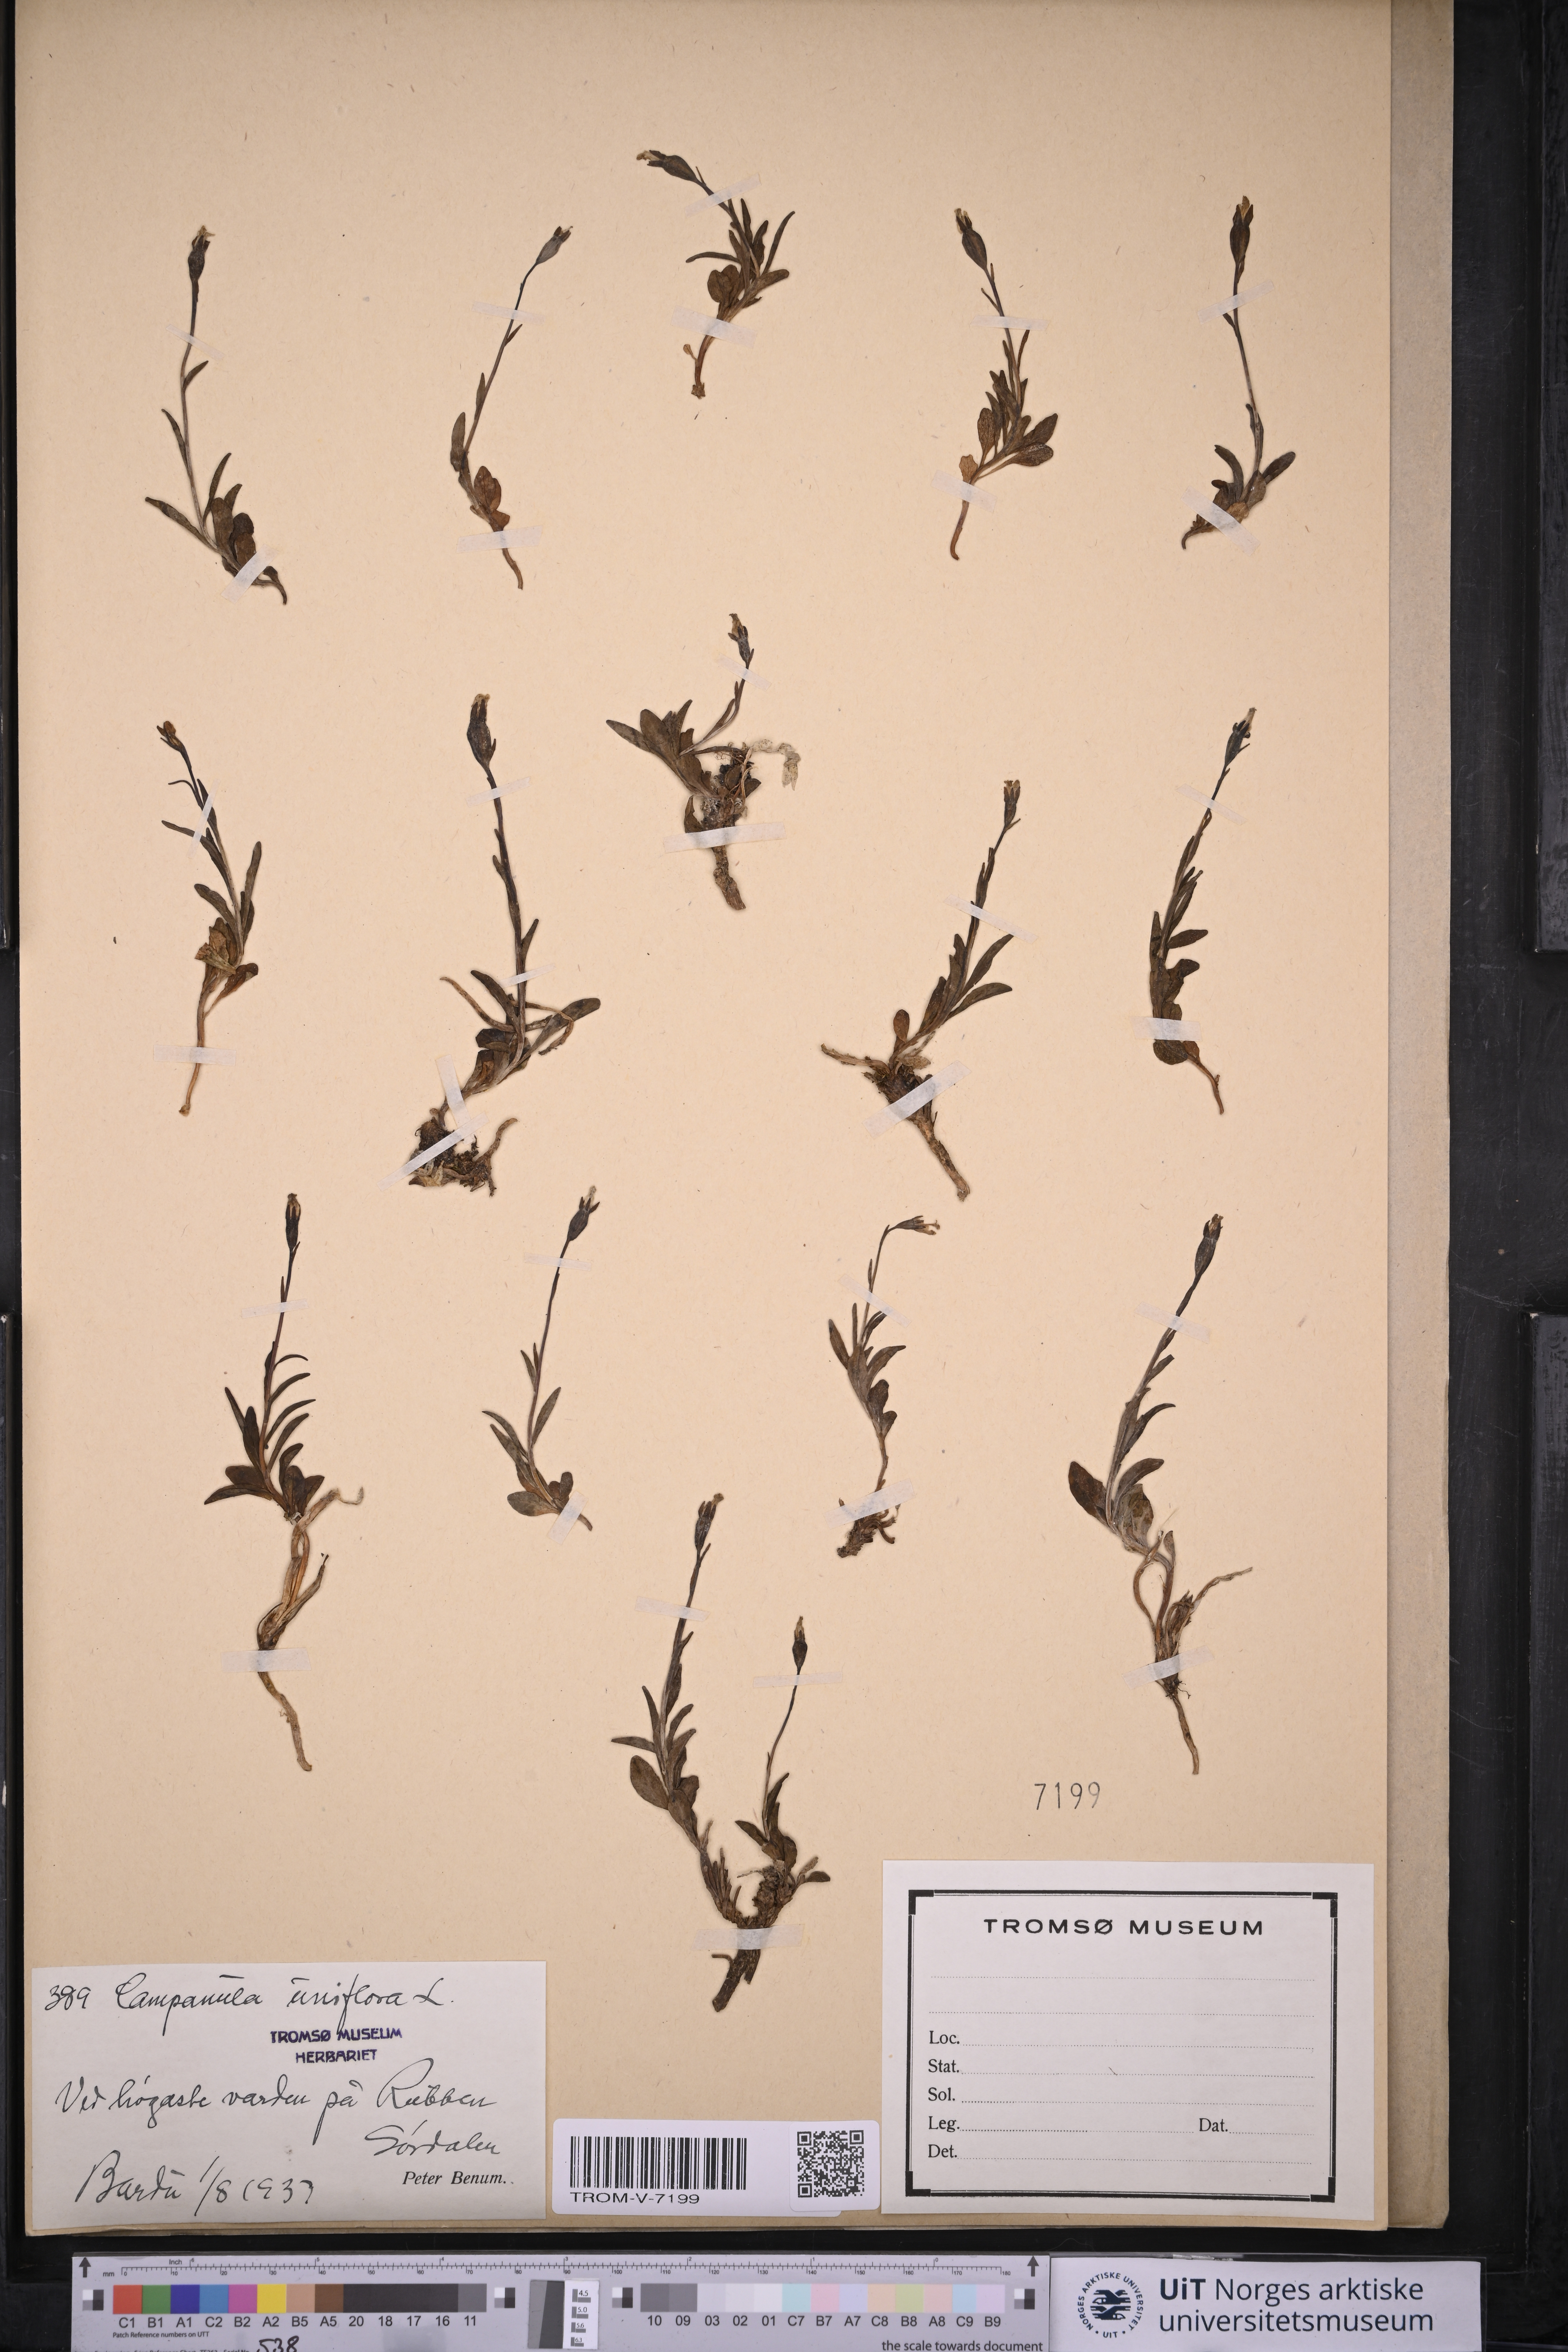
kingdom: Plantae
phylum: Tracheophyta
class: Magnoliopsida
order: Asterales
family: Campanulaceae
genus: Melanocalyx
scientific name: Melanocalyx uniflora
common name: Alpine harebell
